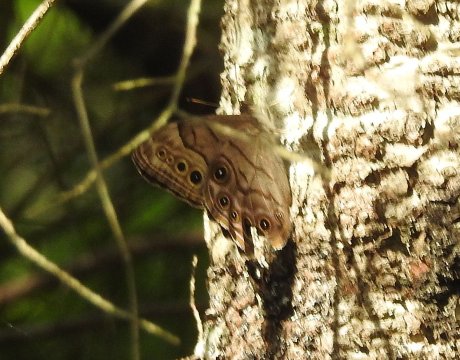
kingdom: Animalia
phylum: Arthropoda
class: Insecta
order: Lepidoptera
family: Nymphalidae
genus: Lethe
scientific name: Lethe anthedon
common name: Northern Pearly-Eye
